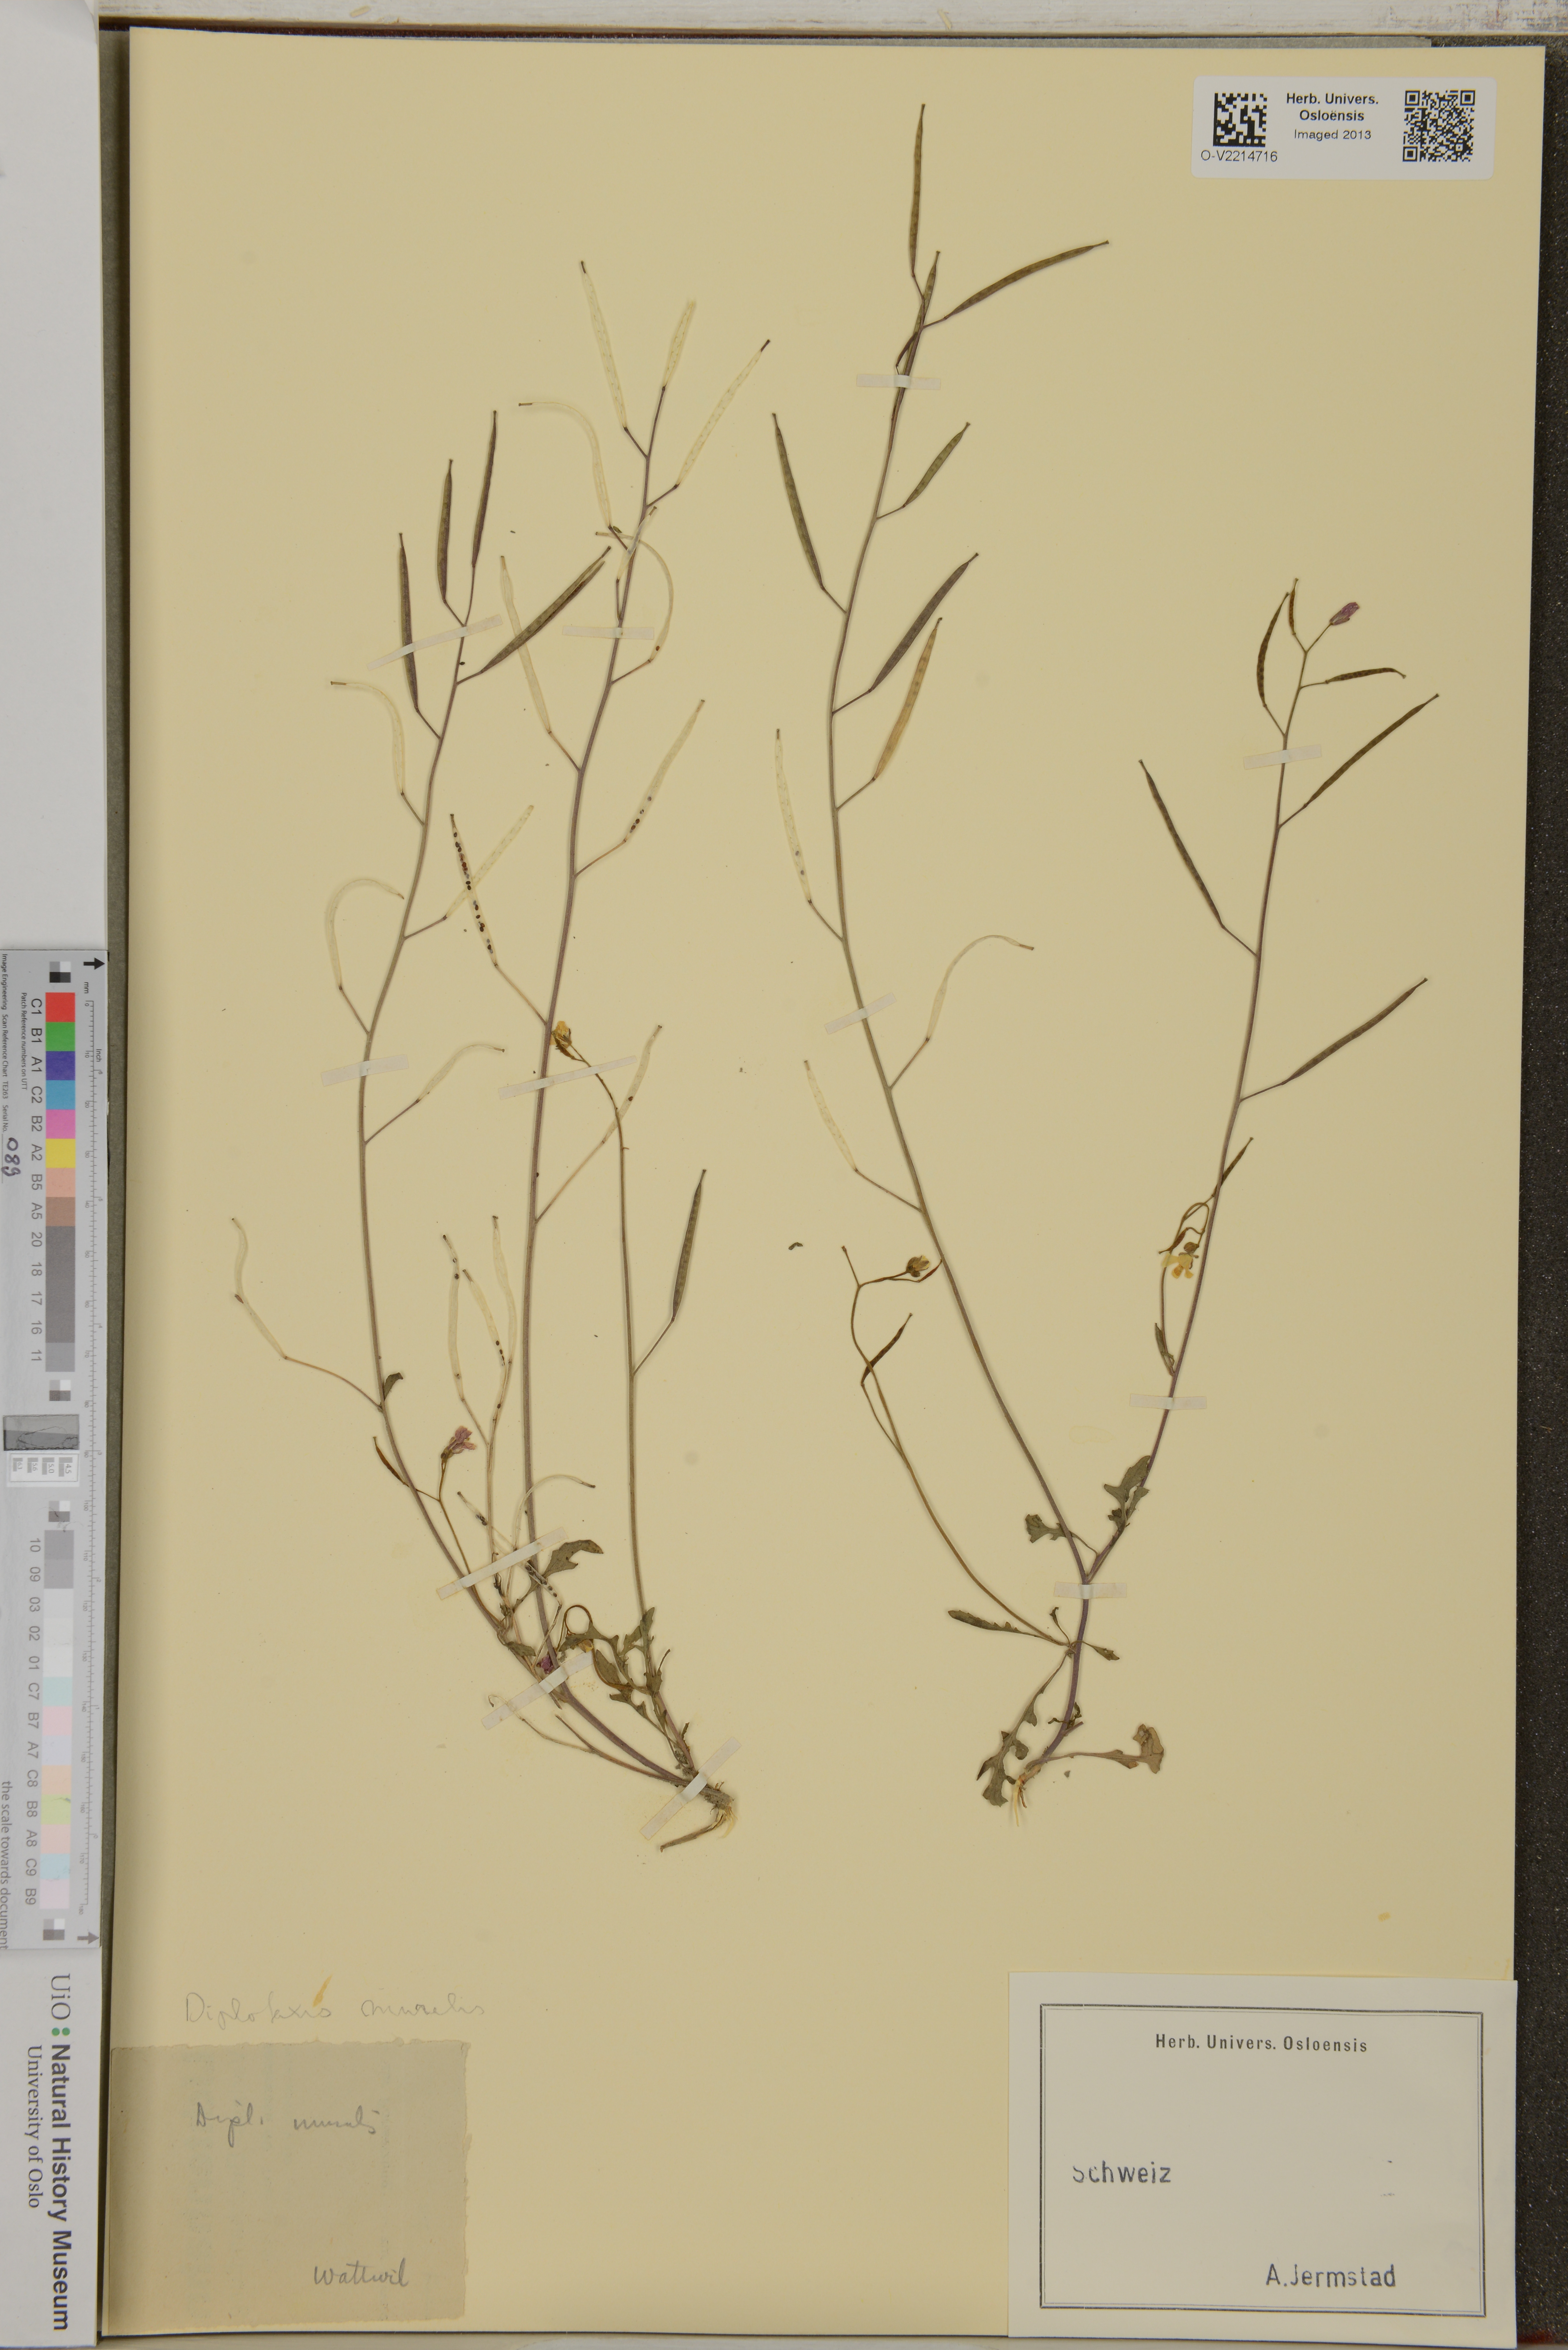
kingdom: Plantae
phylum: Tracheophyta
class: Magnoliopsida
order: Brassicales
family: Brassicaceae
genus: Diplotaxis
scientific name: Diplotaxis muralis
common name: Annual wall-rocket
